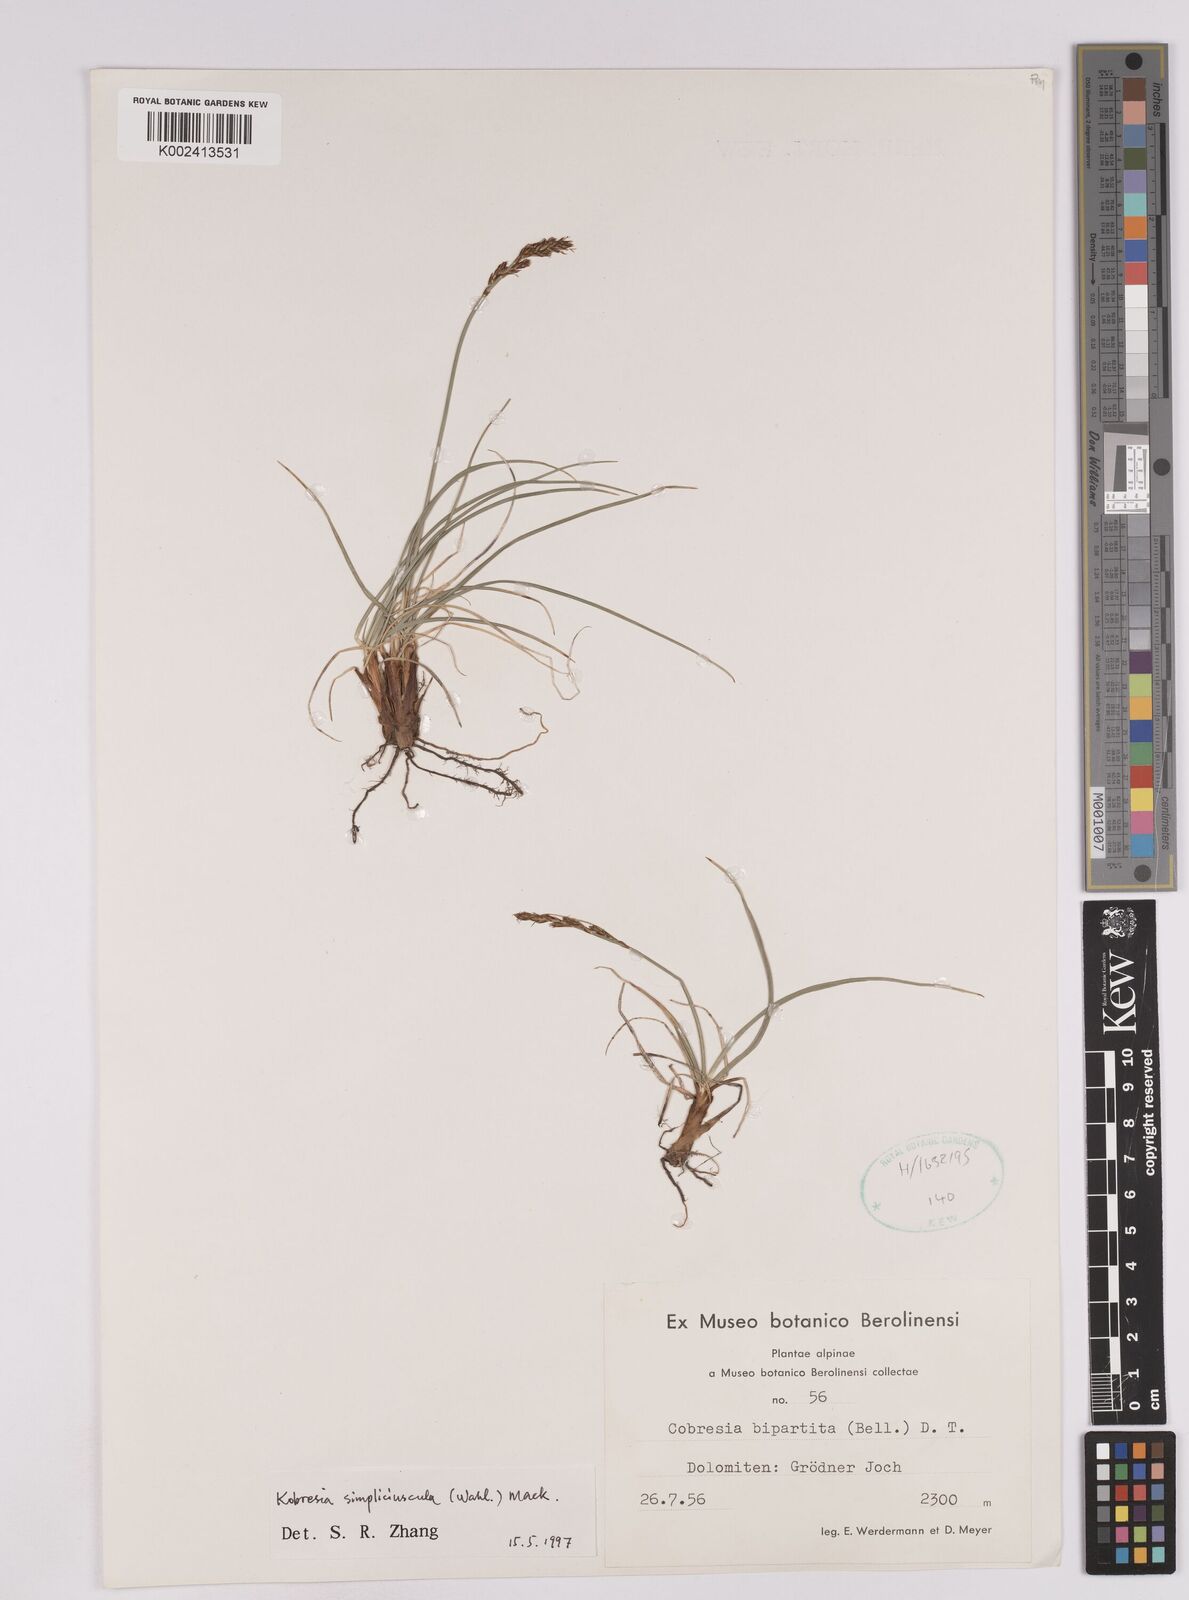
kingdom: Plantae
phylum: Tracheophyta
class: Liliopsida
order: Poales
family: Cyperaceae
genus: Carex
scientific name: Carex simpliciuscula
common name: Simple bog sedge
